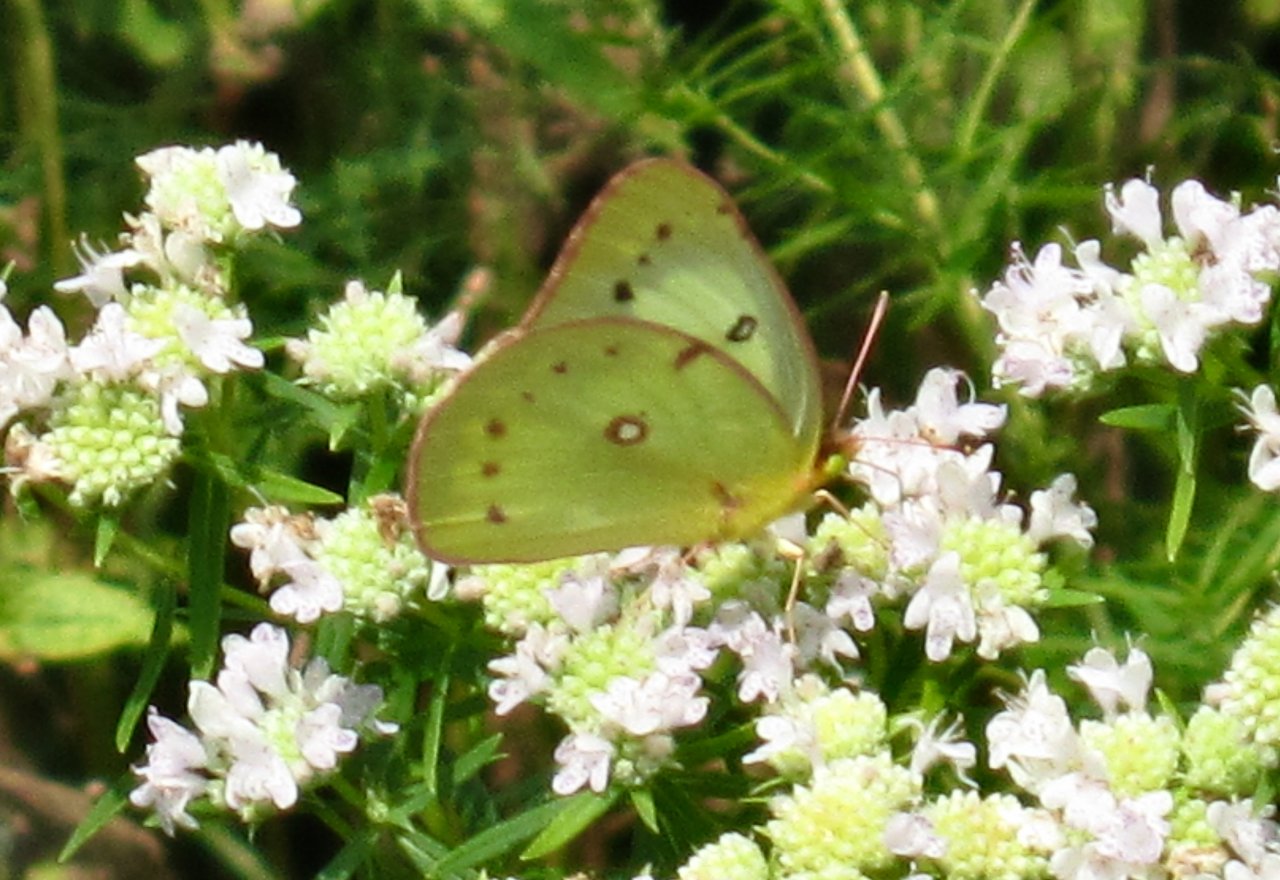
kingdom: Animalia
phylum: Arthropoda
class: Insecta
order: Lepidoptera
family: Pieridae
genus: Colias
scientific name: Colias philodice
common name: Clouded Sulphur
